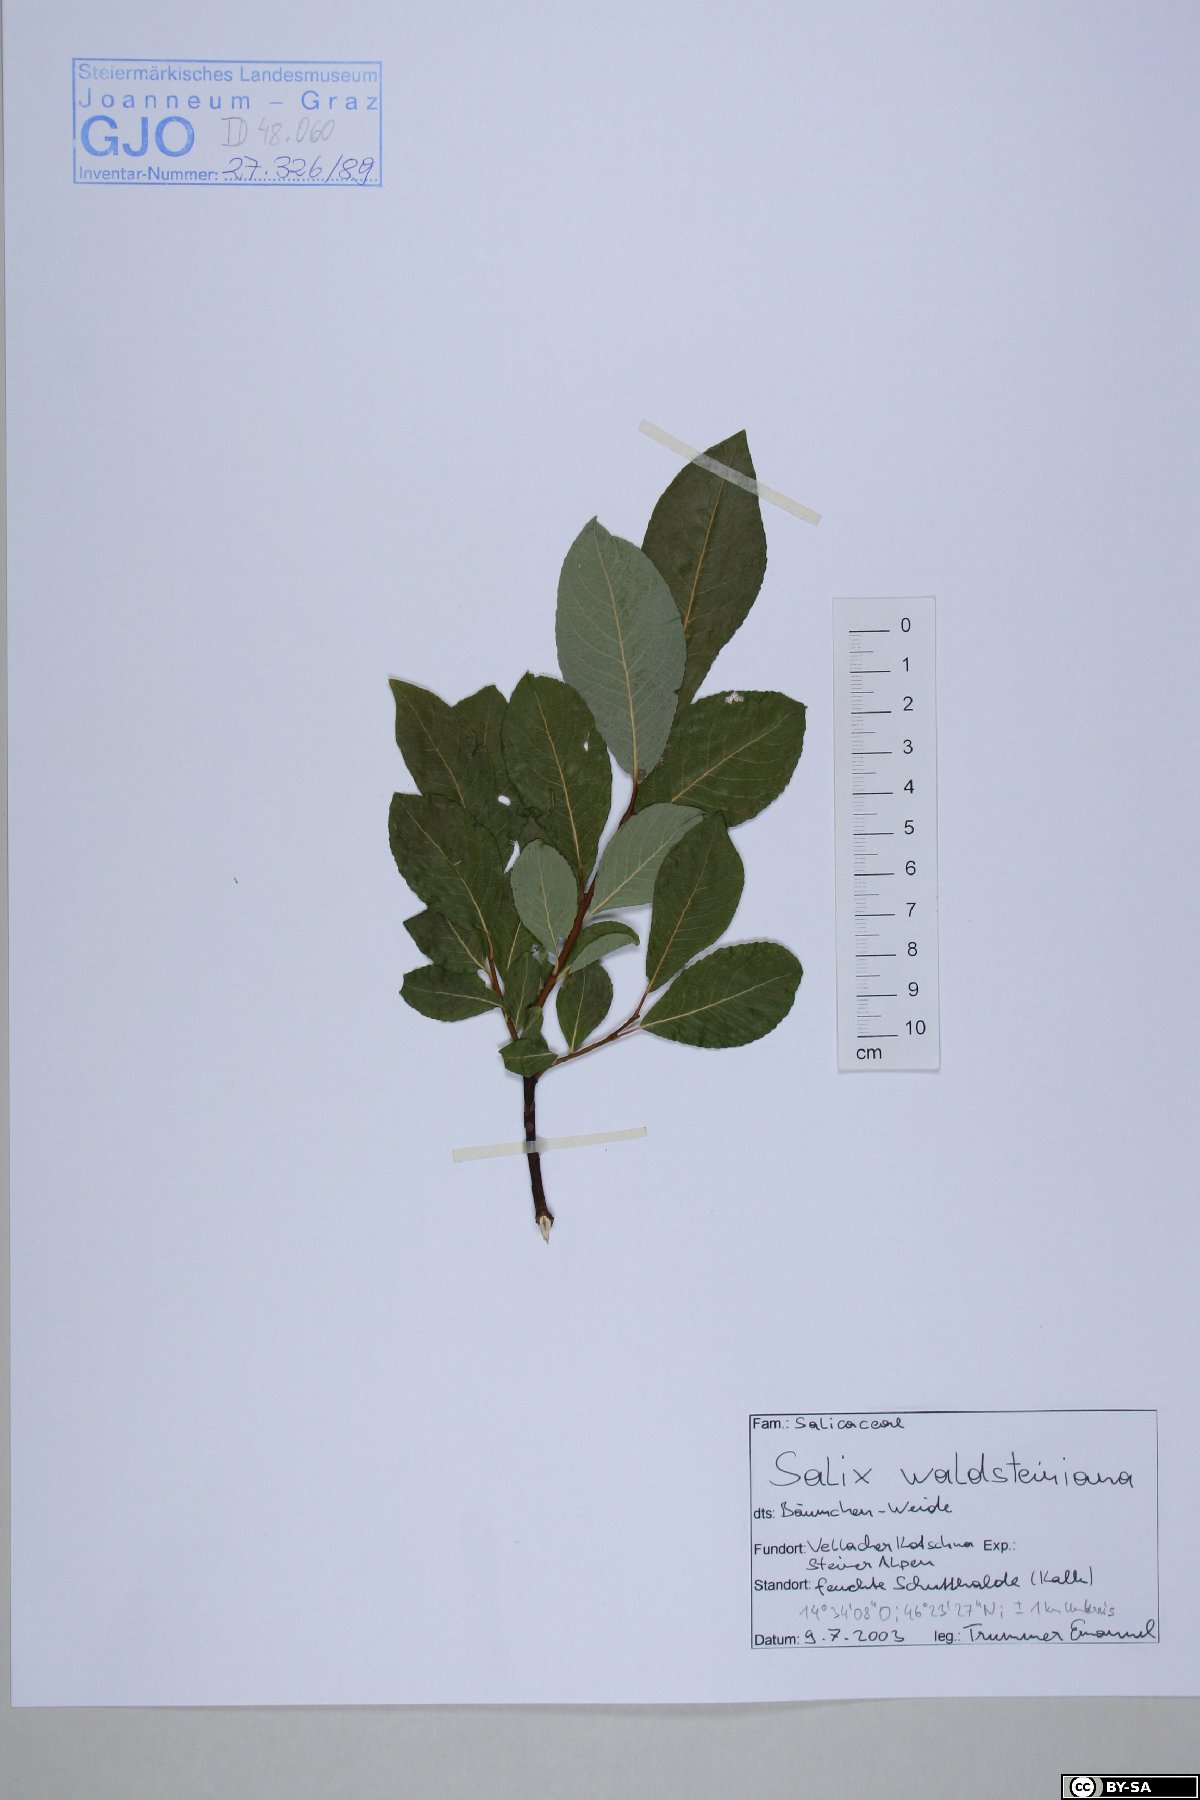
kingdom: Plantae
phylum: Tracheophyta
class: Magnoliopsida
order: Malpighiales
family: Salicaceae
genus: Salix
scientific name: Salix waldsteiniana
